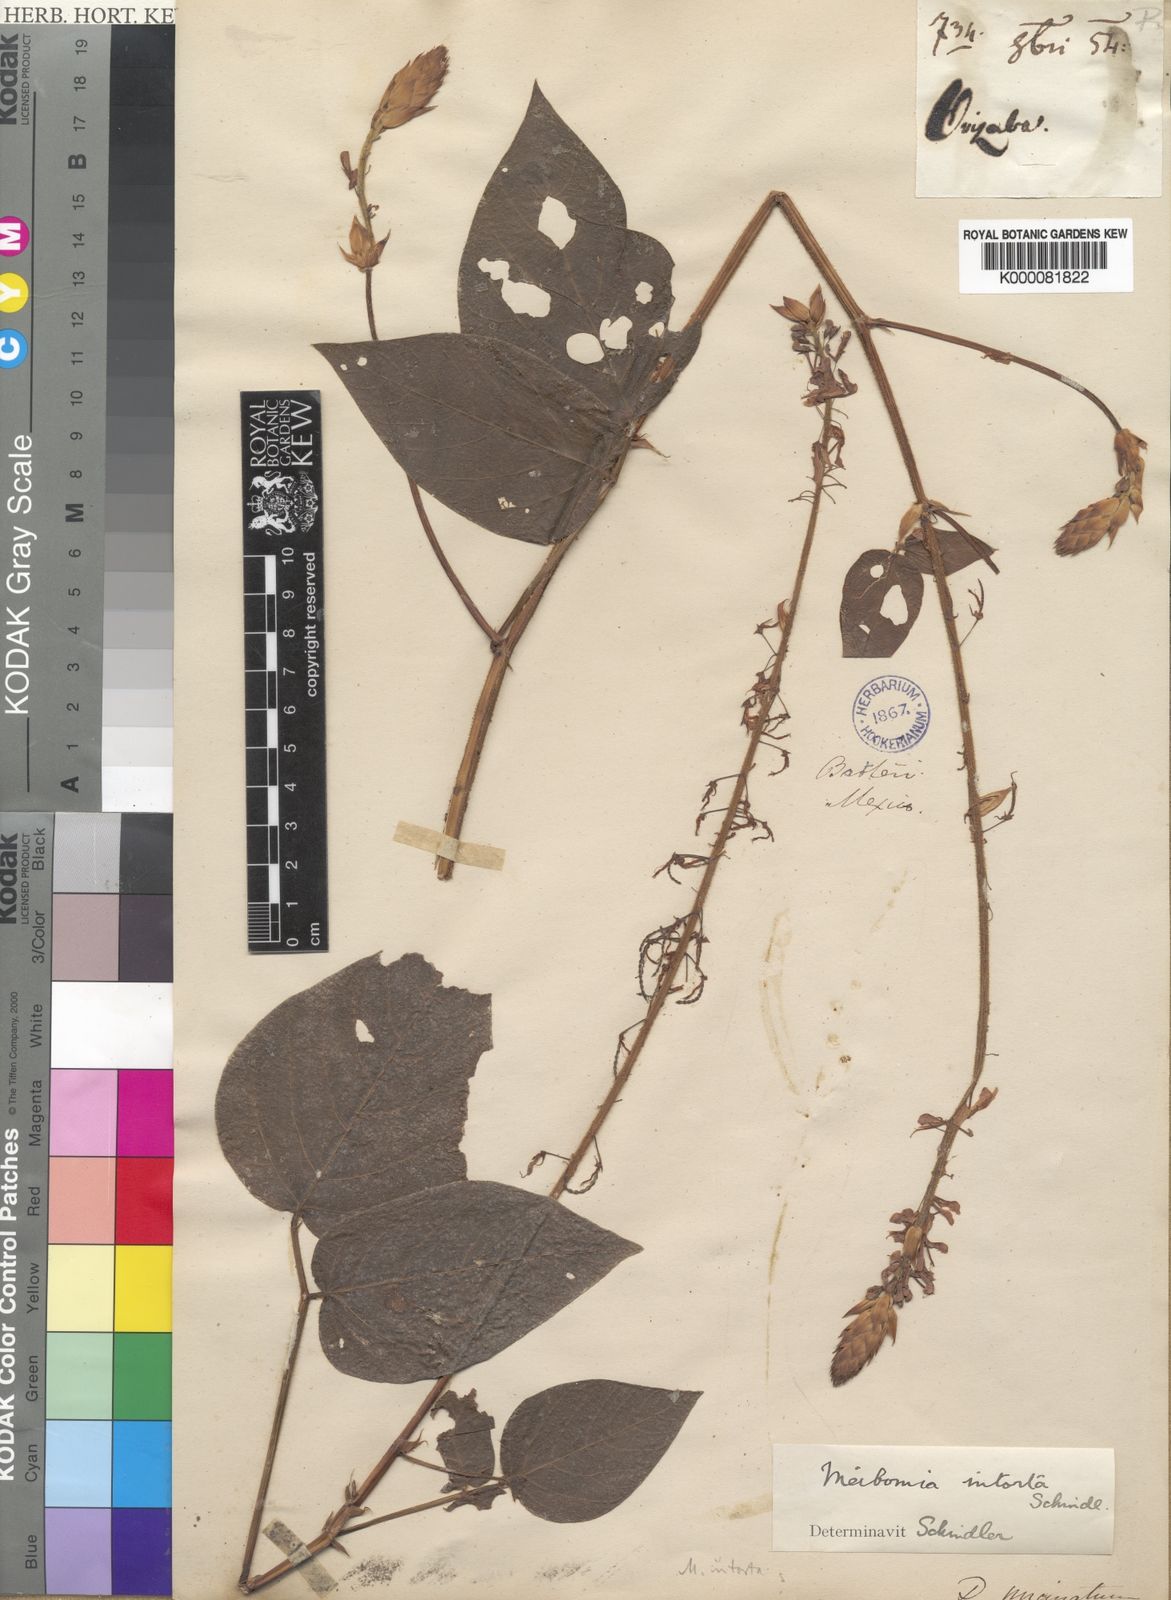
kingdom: Plantae
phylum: Tracheophyta
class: Magnoliopsida
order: Fabales
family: Fabaceae
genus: Desmodium
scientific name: Desmodium uncinatum
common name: Silverleaf desmodium
